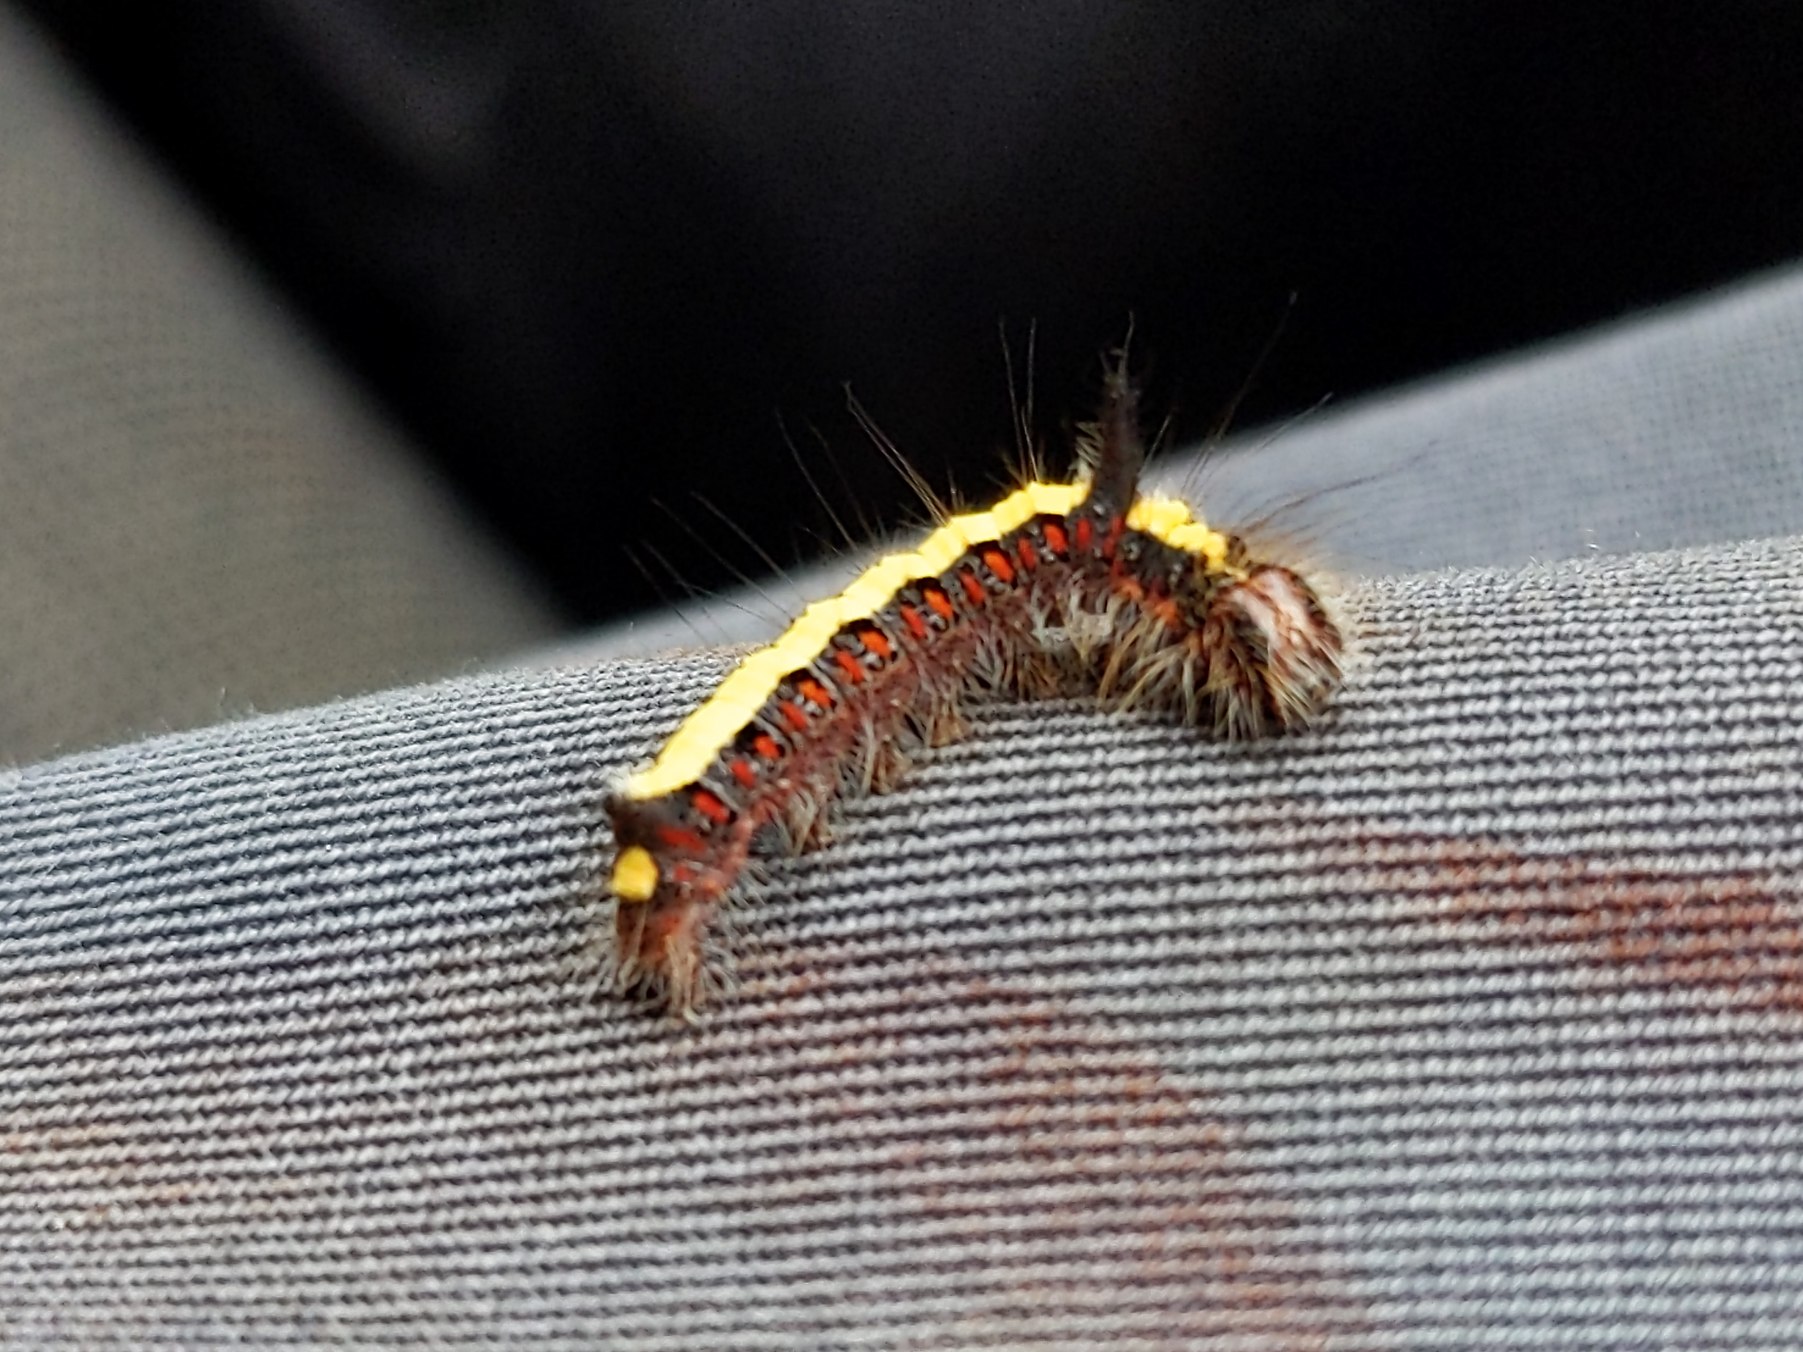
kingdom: Animalia
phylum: Arthropoda
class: Insecta
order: Lepidoptera
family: Noctuidae
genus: Acronicta
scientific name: Acronicta psi
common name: Psi-ugle
